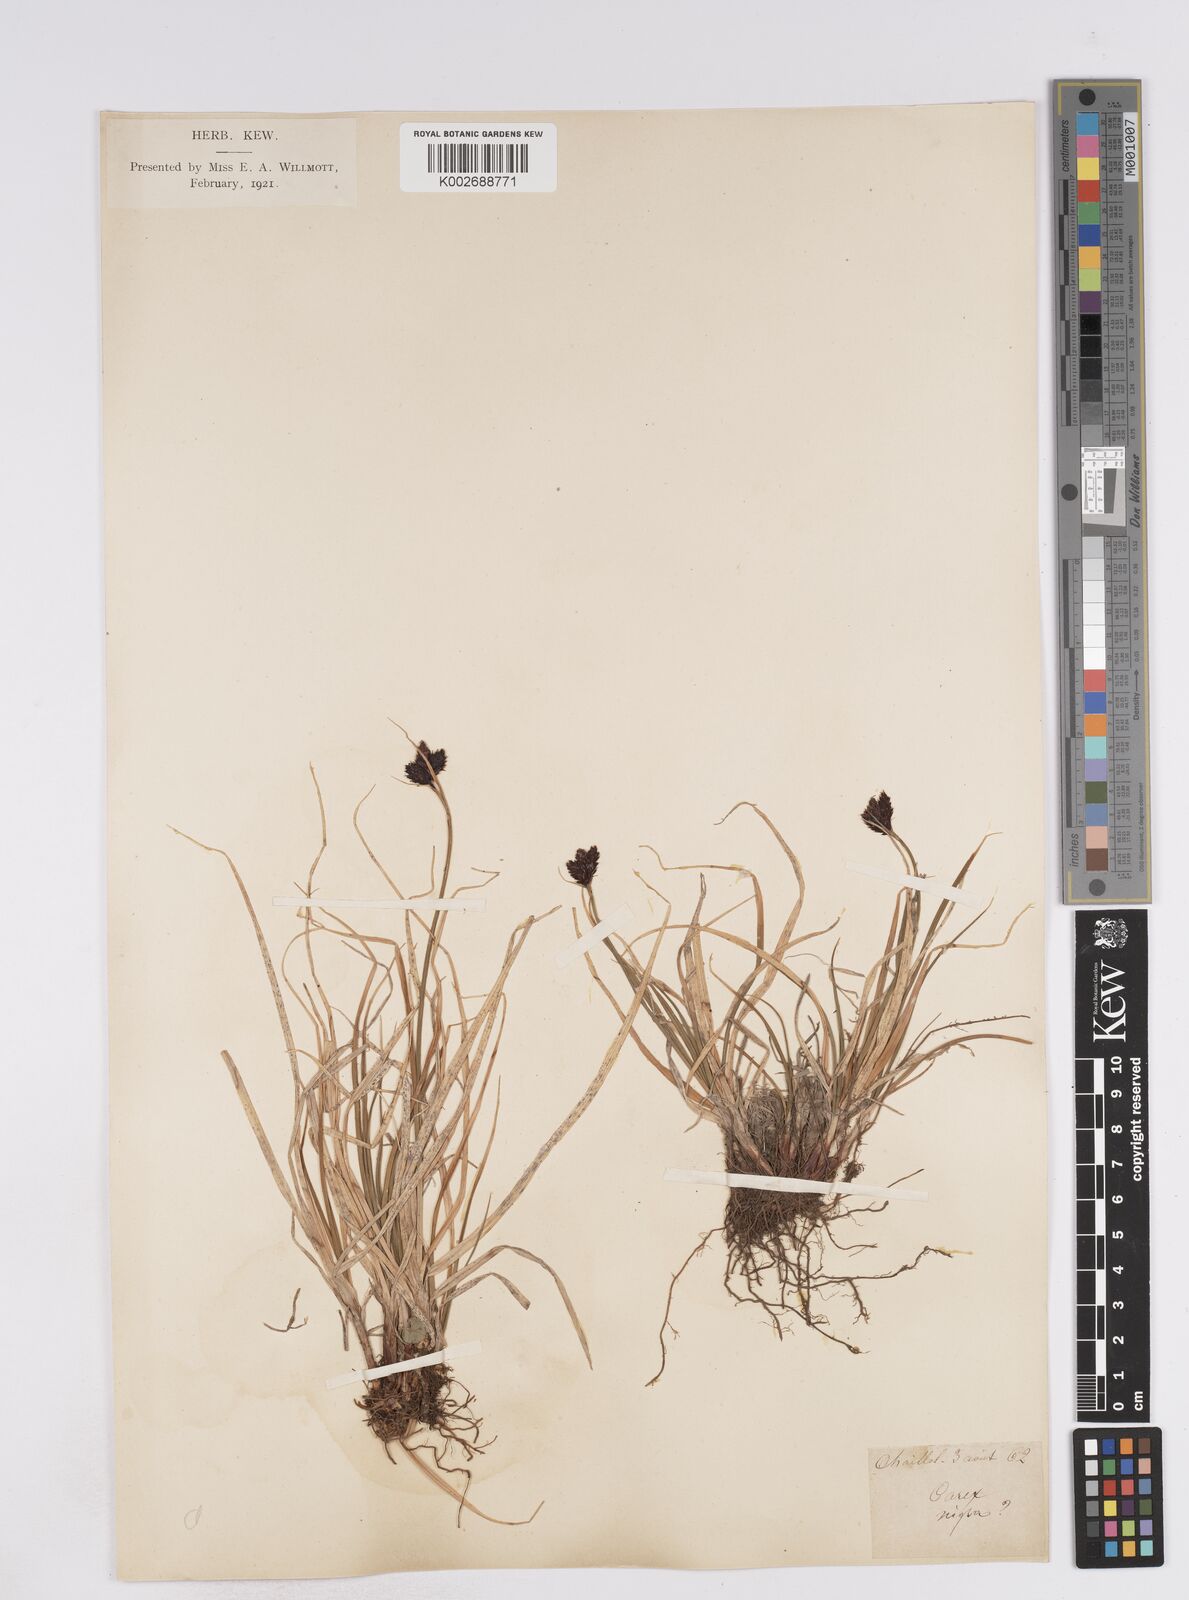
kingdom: Plantae
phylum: Tracheophyta
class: Liliopsida
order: Poales
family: Cyperaceae
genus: Carex
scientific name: Carex parviflora
